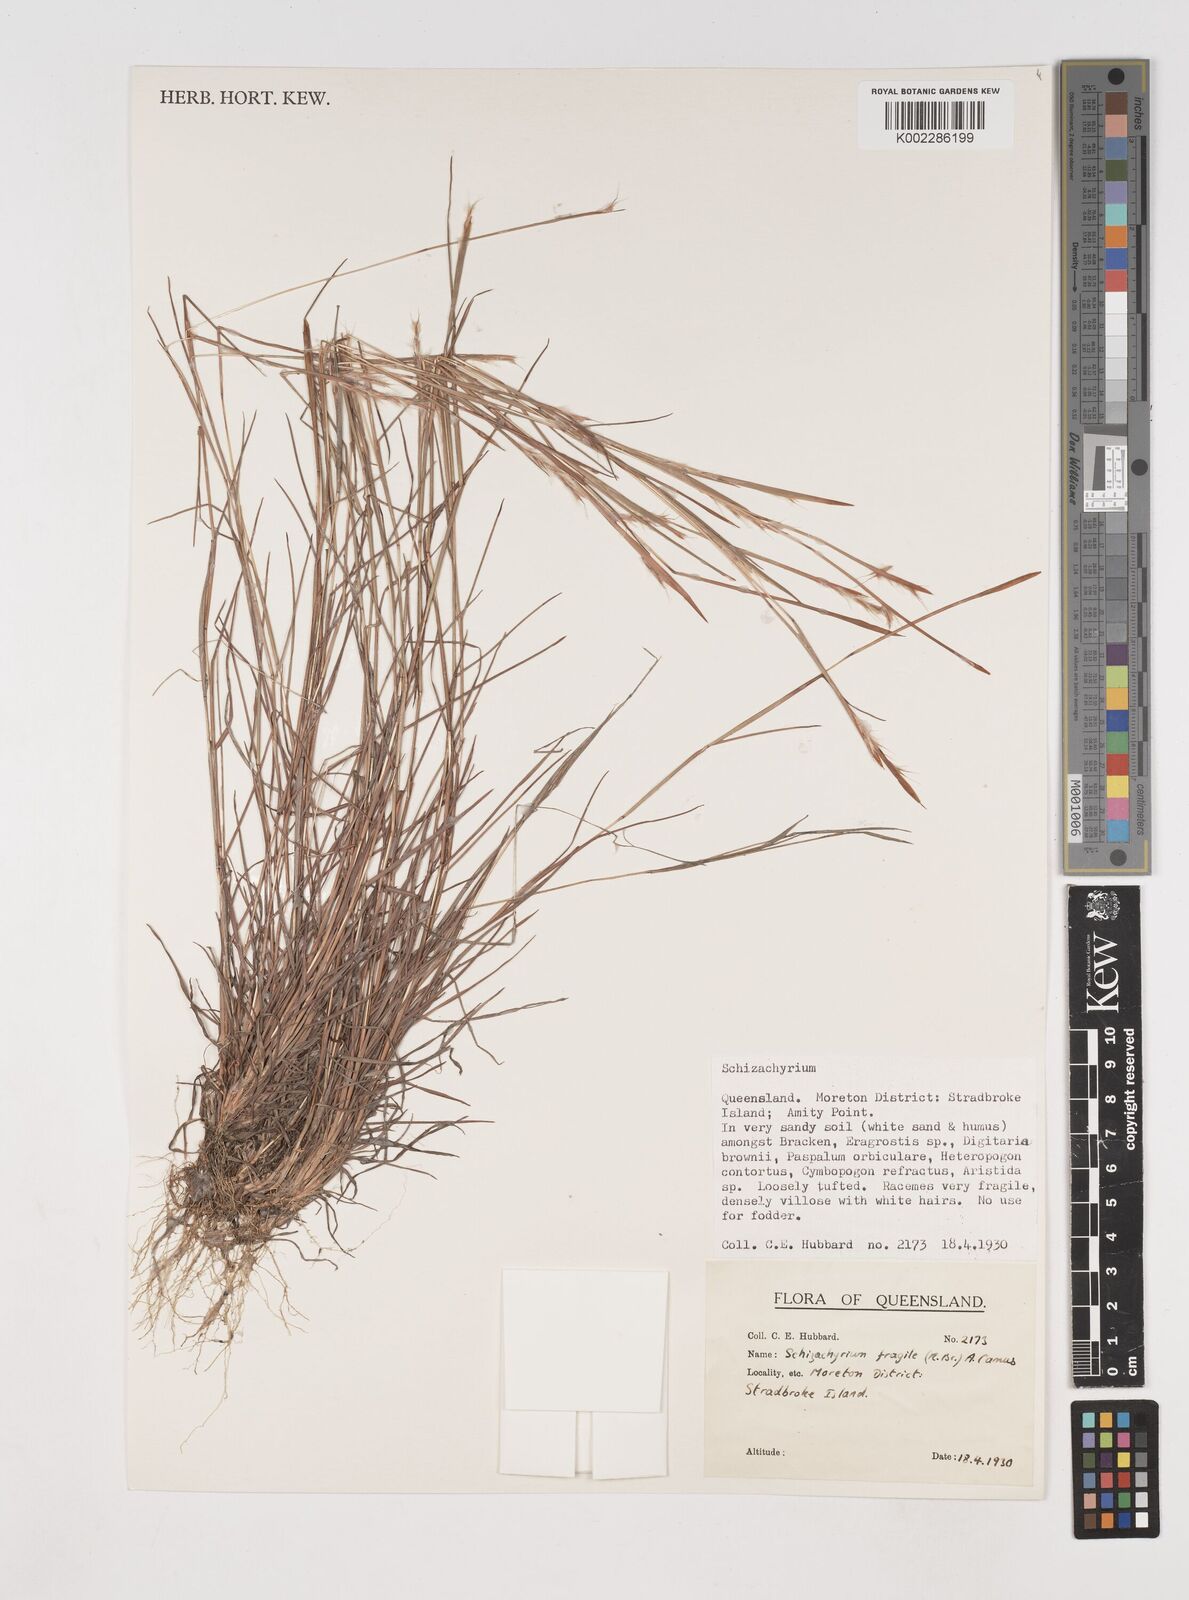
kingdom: Plantae
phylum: Tracheophyta
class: Liliopsida
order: Poales
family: Poaceae
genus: Schizachyrium
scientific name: Schizachyrium fragile
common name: Red spathe grass
